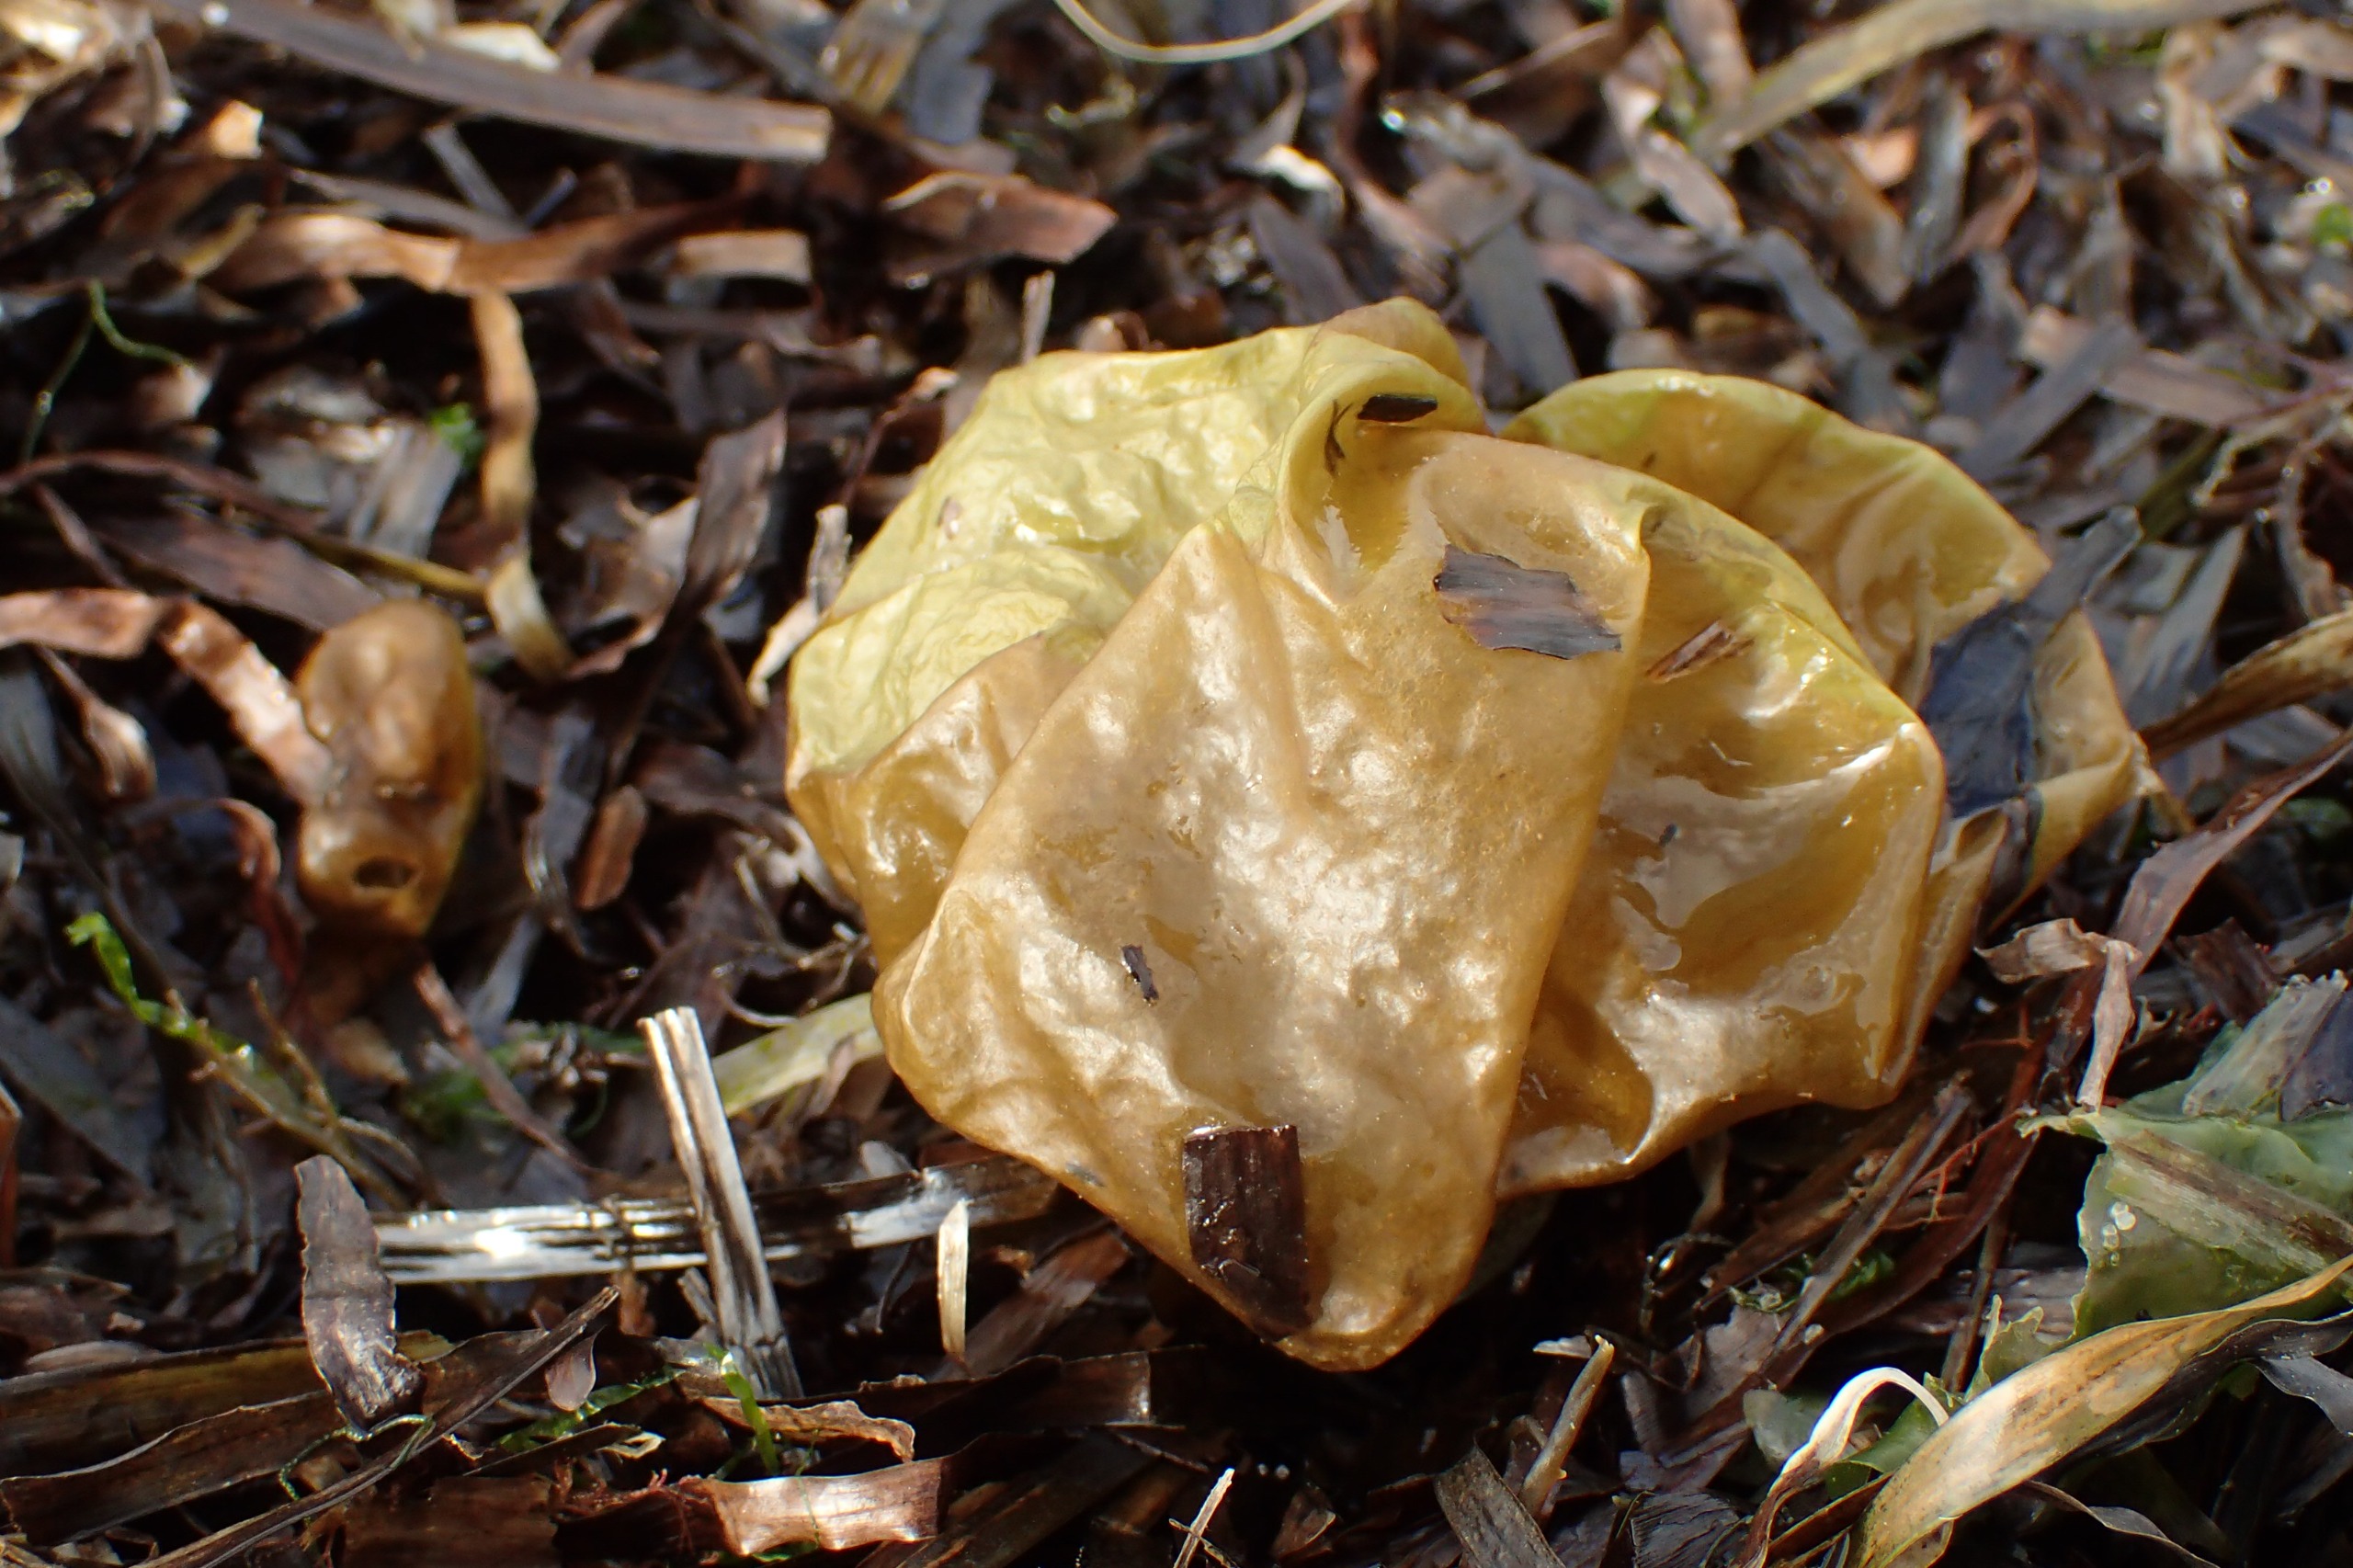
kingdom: Chromista
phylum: Ochrophyta
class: Phaeophyceae
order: Scytosiphonales
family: Scytosiphonaceae
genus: Colpomenia
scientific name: Colpomenia peregrina
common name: Østerstyv
